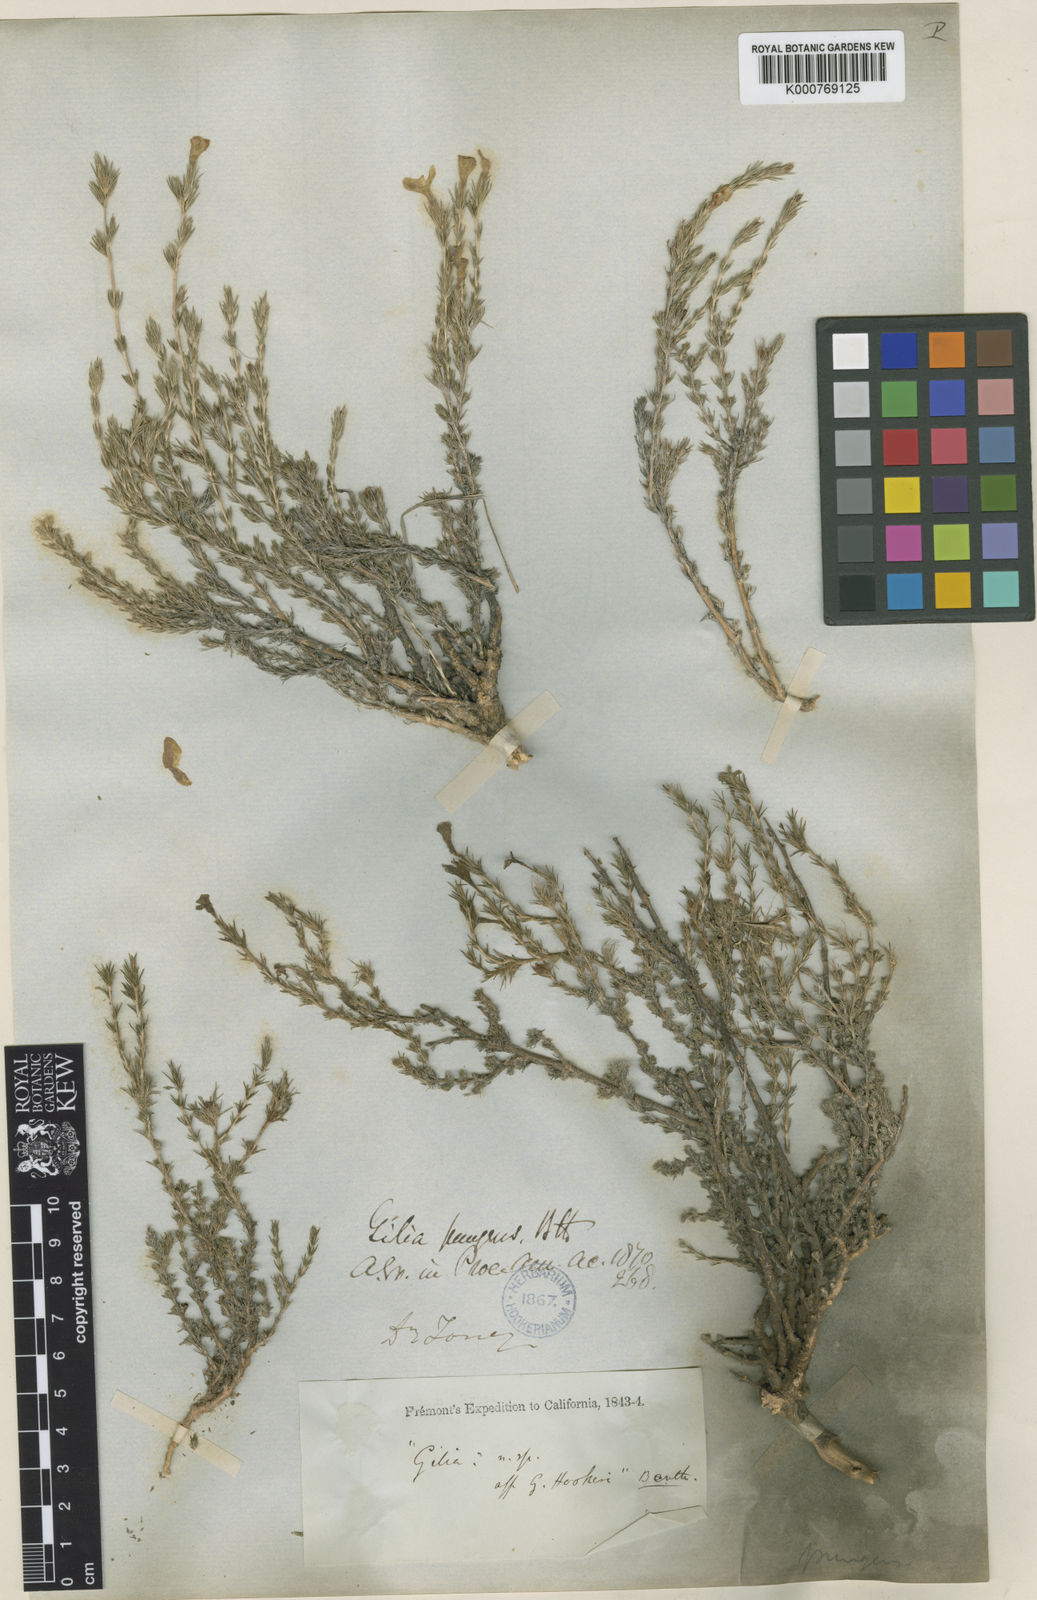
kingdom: Plantae
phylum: Tracheophyta
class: Magnoliopsida
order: Ericales
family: Polemoniaceae
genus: Linanthus
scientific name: Linanthus pungens
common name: Granite prickly phlox
